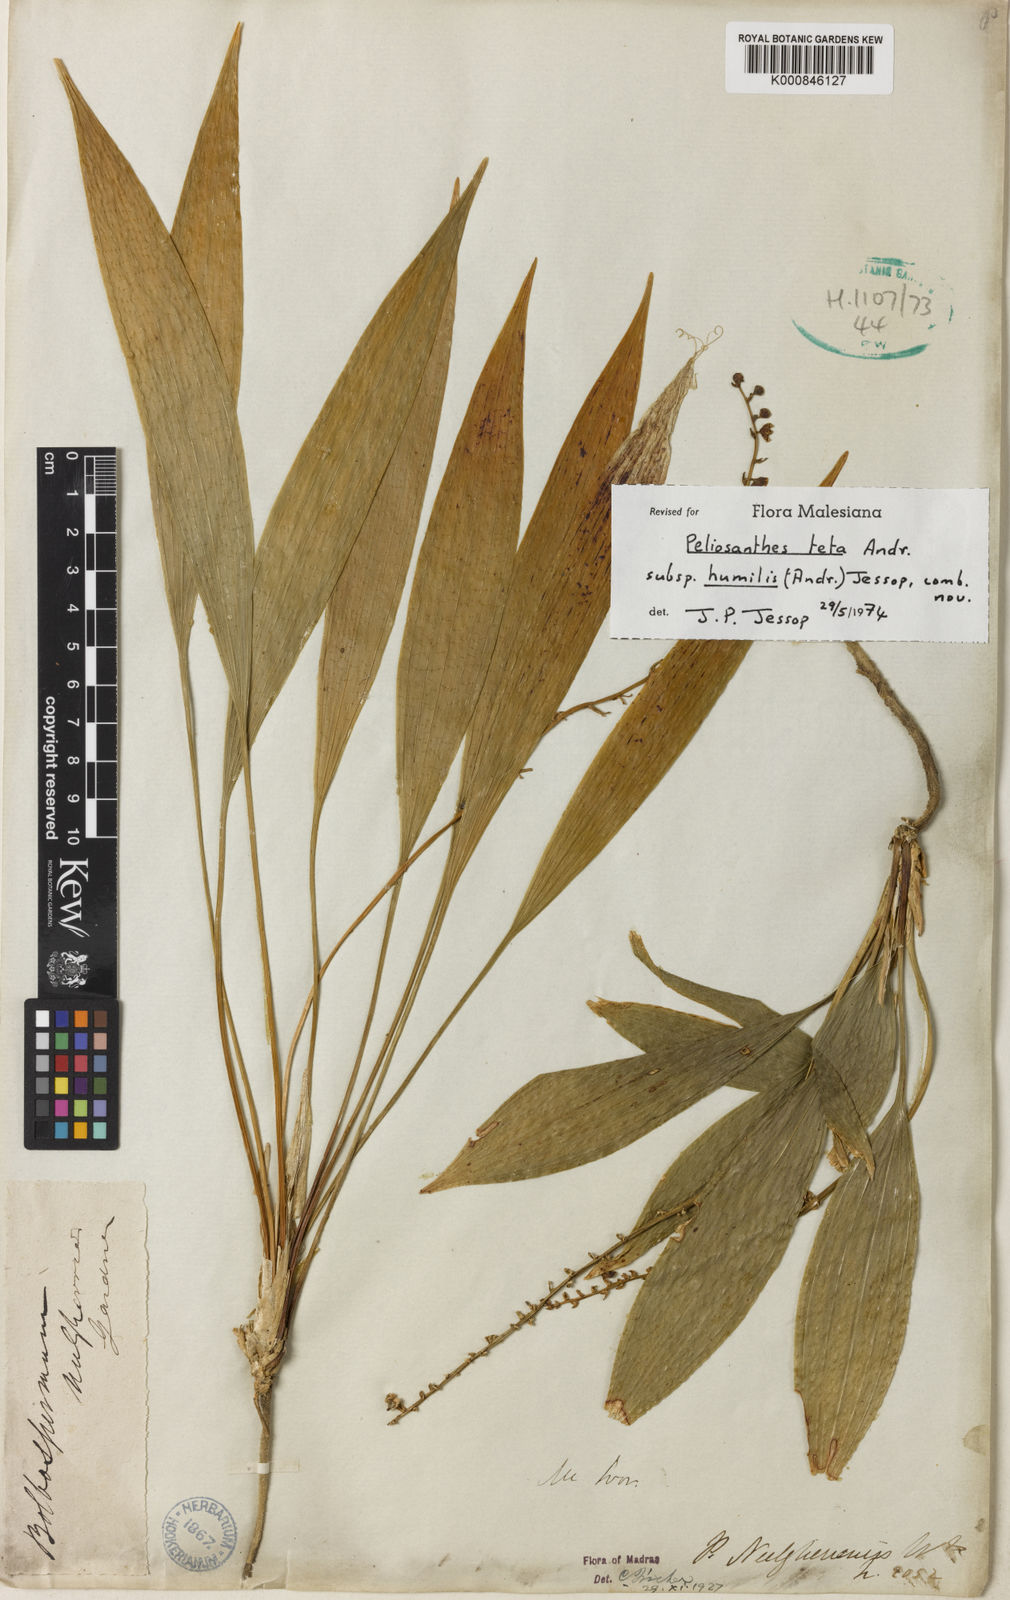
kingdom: Plantae
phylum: Tracheophyta
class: Liliopsida
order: Asparagales
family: Asparagaceae
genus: Peliosanthes
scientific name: Peliosanthes teta
